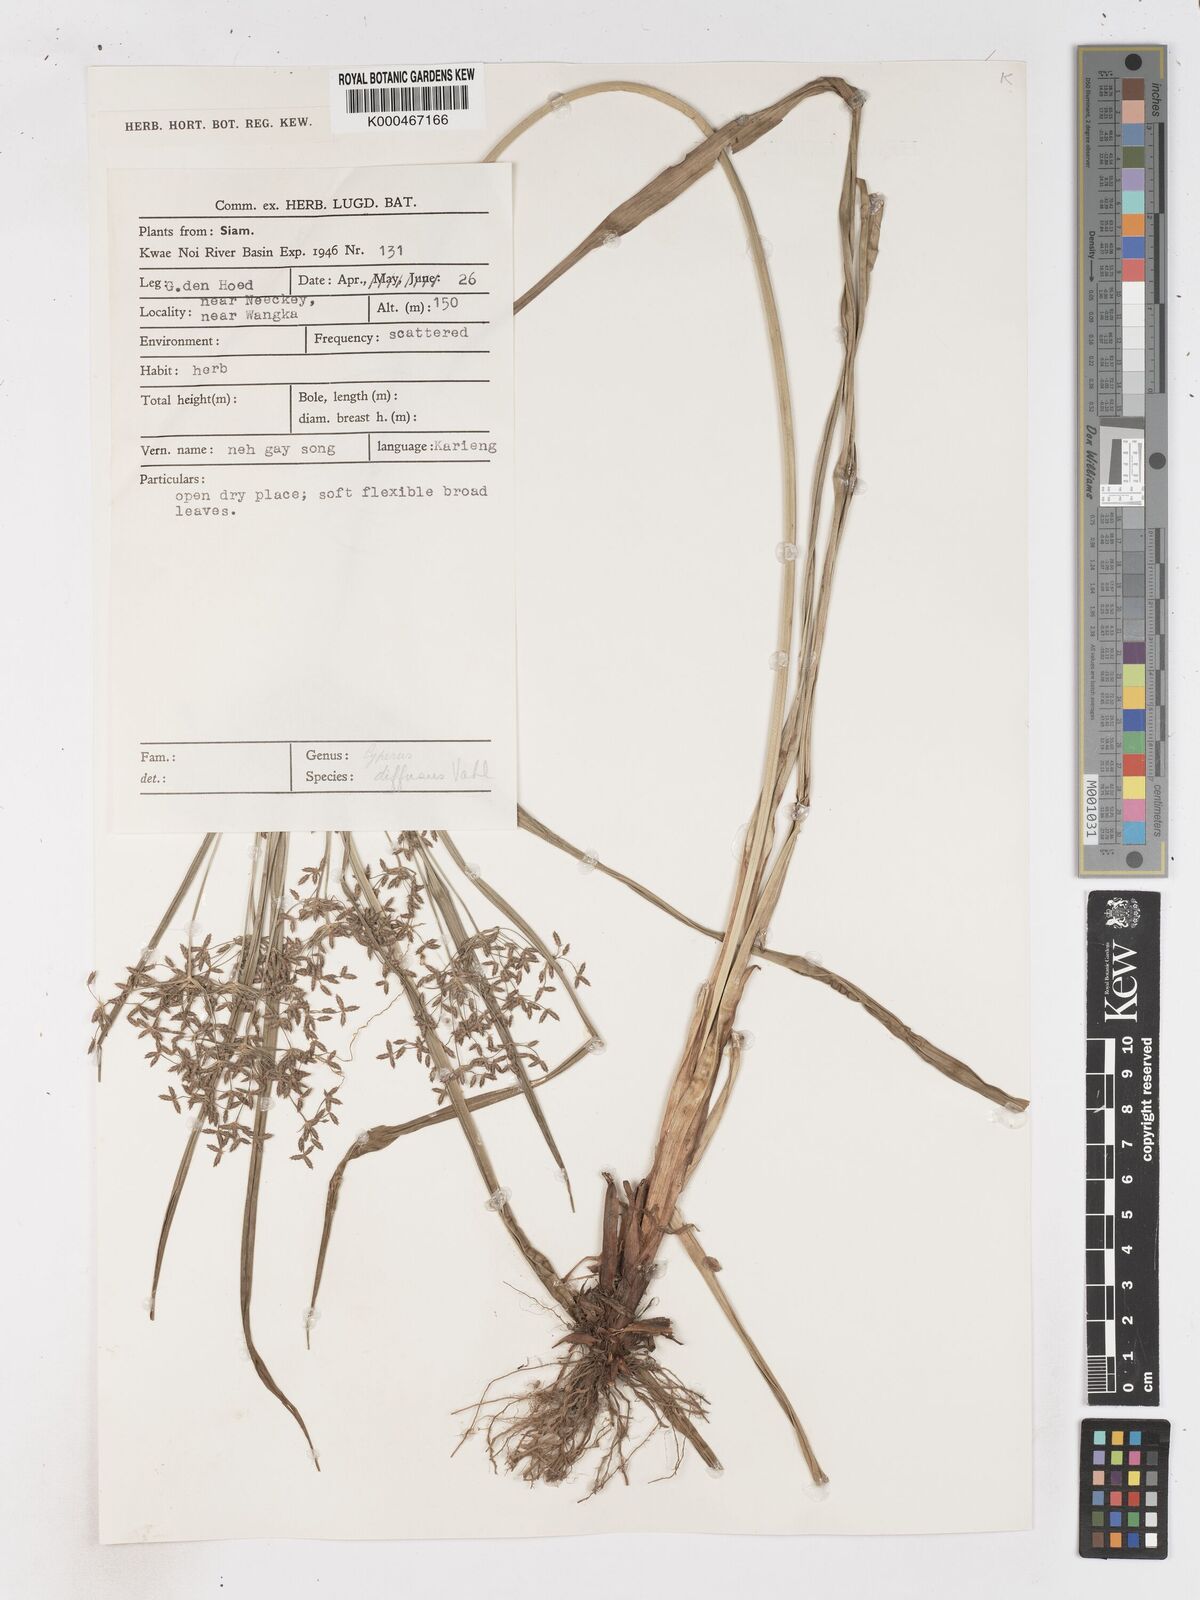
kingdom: Plantae
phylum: Tracheophyta
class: Liliopsida
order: Poales
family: Cyperaceae
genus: Cyperus
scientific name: Cyperus diffusus
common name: Dwarf umbrella grass
